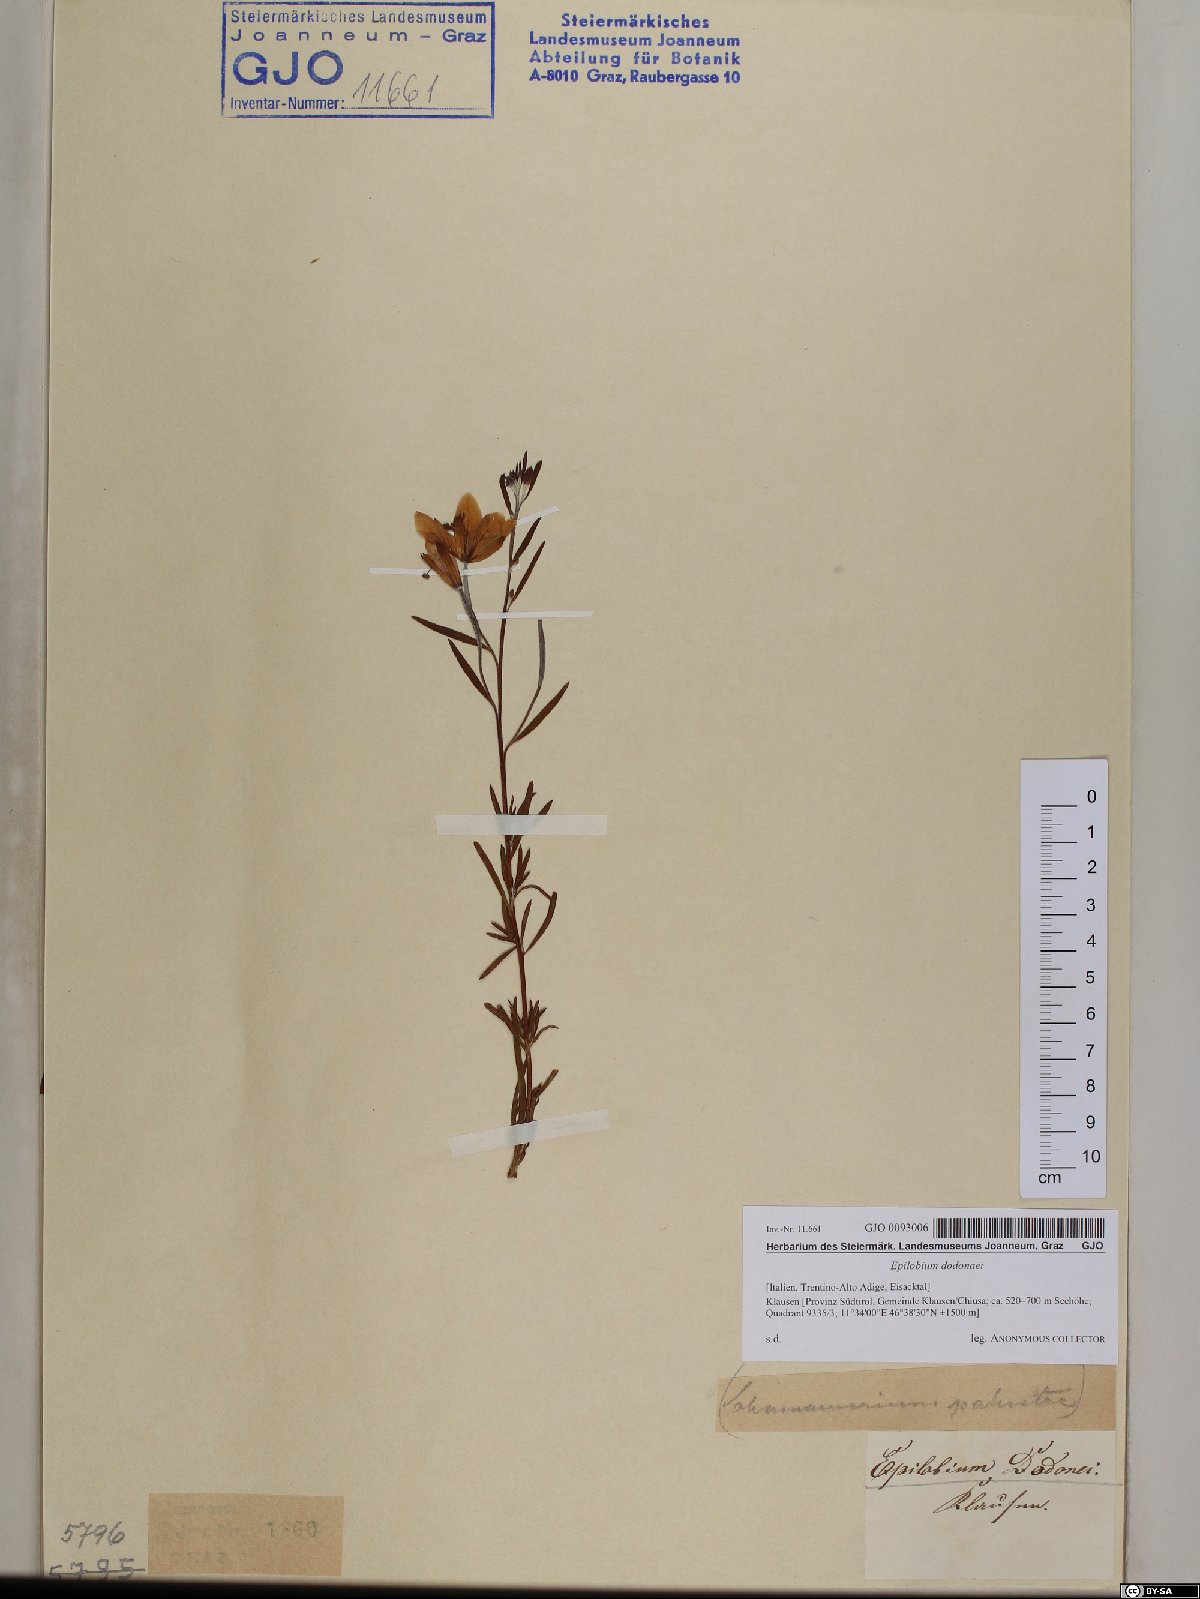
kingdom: Plantae
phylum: Tracheophyta
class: Magnoliopsida
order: Myrtales
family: Onagraceae
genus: Chamaenerion
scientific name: Chamaenerion dodonaei
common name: Rosemary-leaved willowherb
